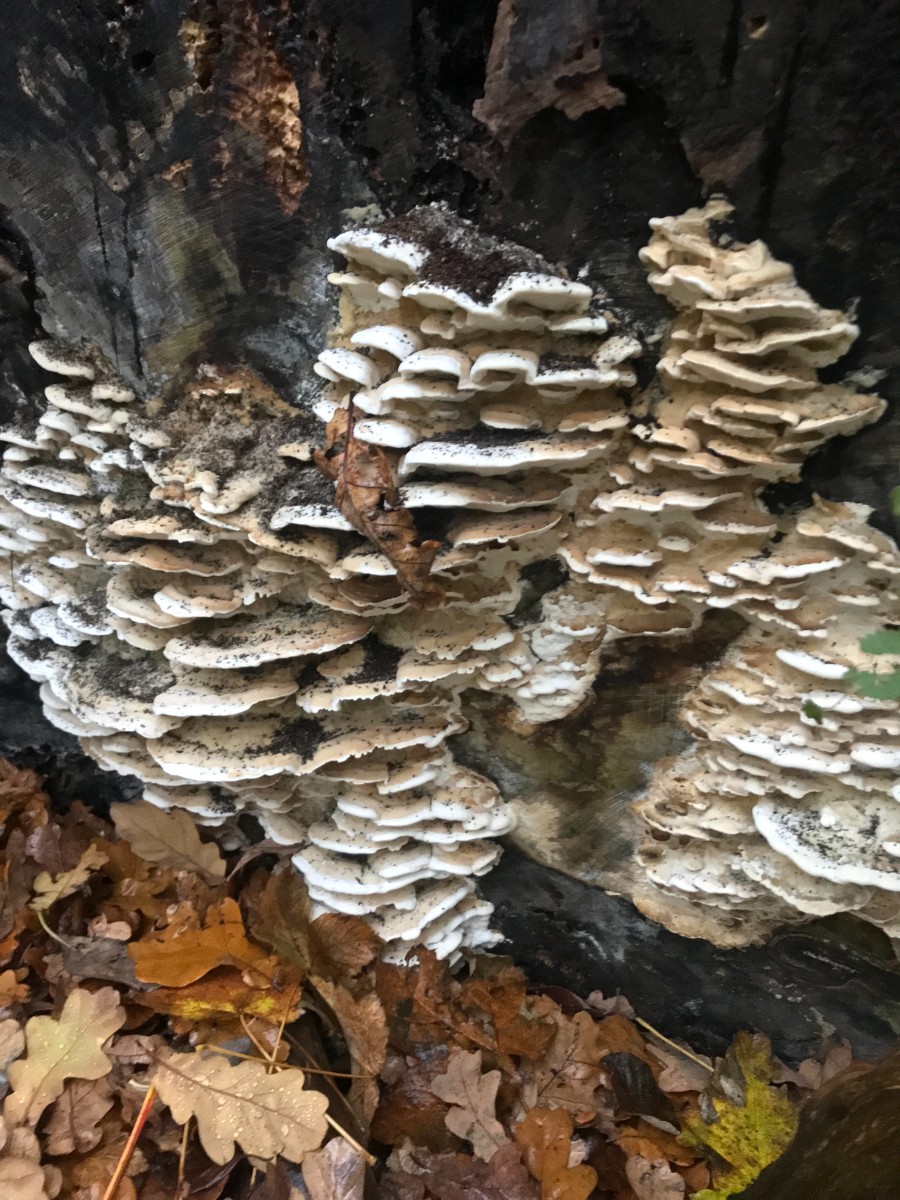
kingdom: Fungi
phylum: Basidiomycota
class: Agaricomycetes
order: Hymenochaetales
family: Oxyporaceae
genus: Oxyporus
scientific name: Oxyporus populinus
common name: sammenvokset trylleporesvamp
